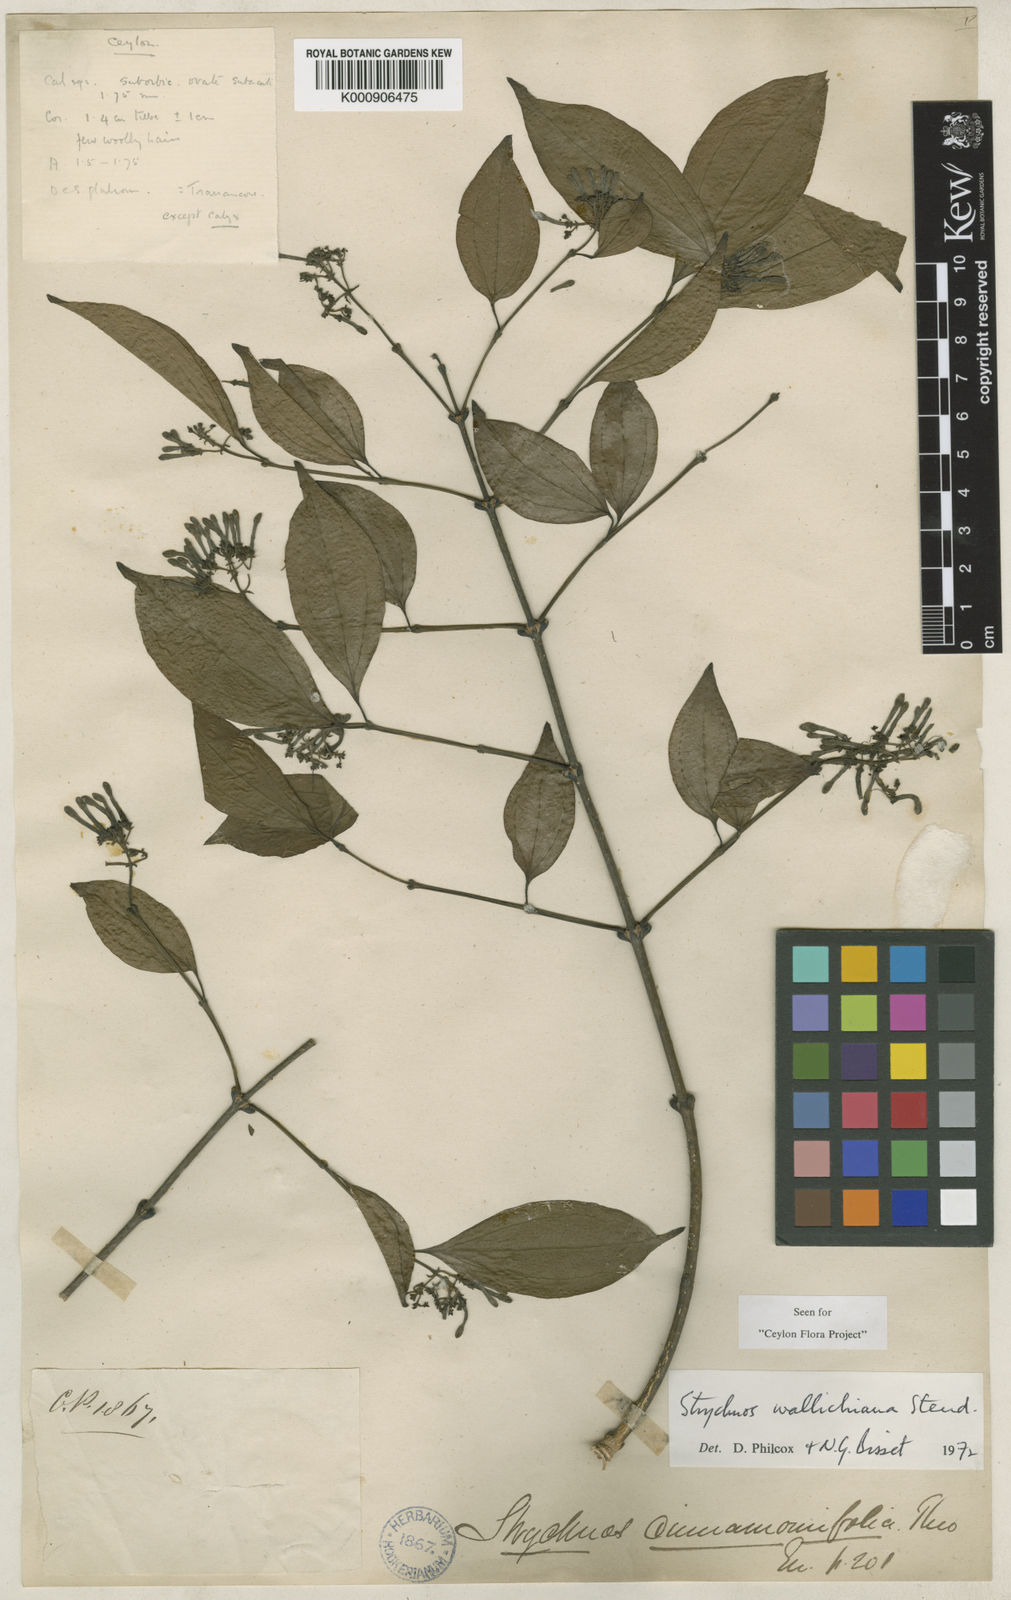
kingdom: Plantae
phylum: Tracheophyta
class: Magnoliopsida
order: Gentianales
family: Loganiaceae
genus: Strychnos
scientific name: Strychnos
